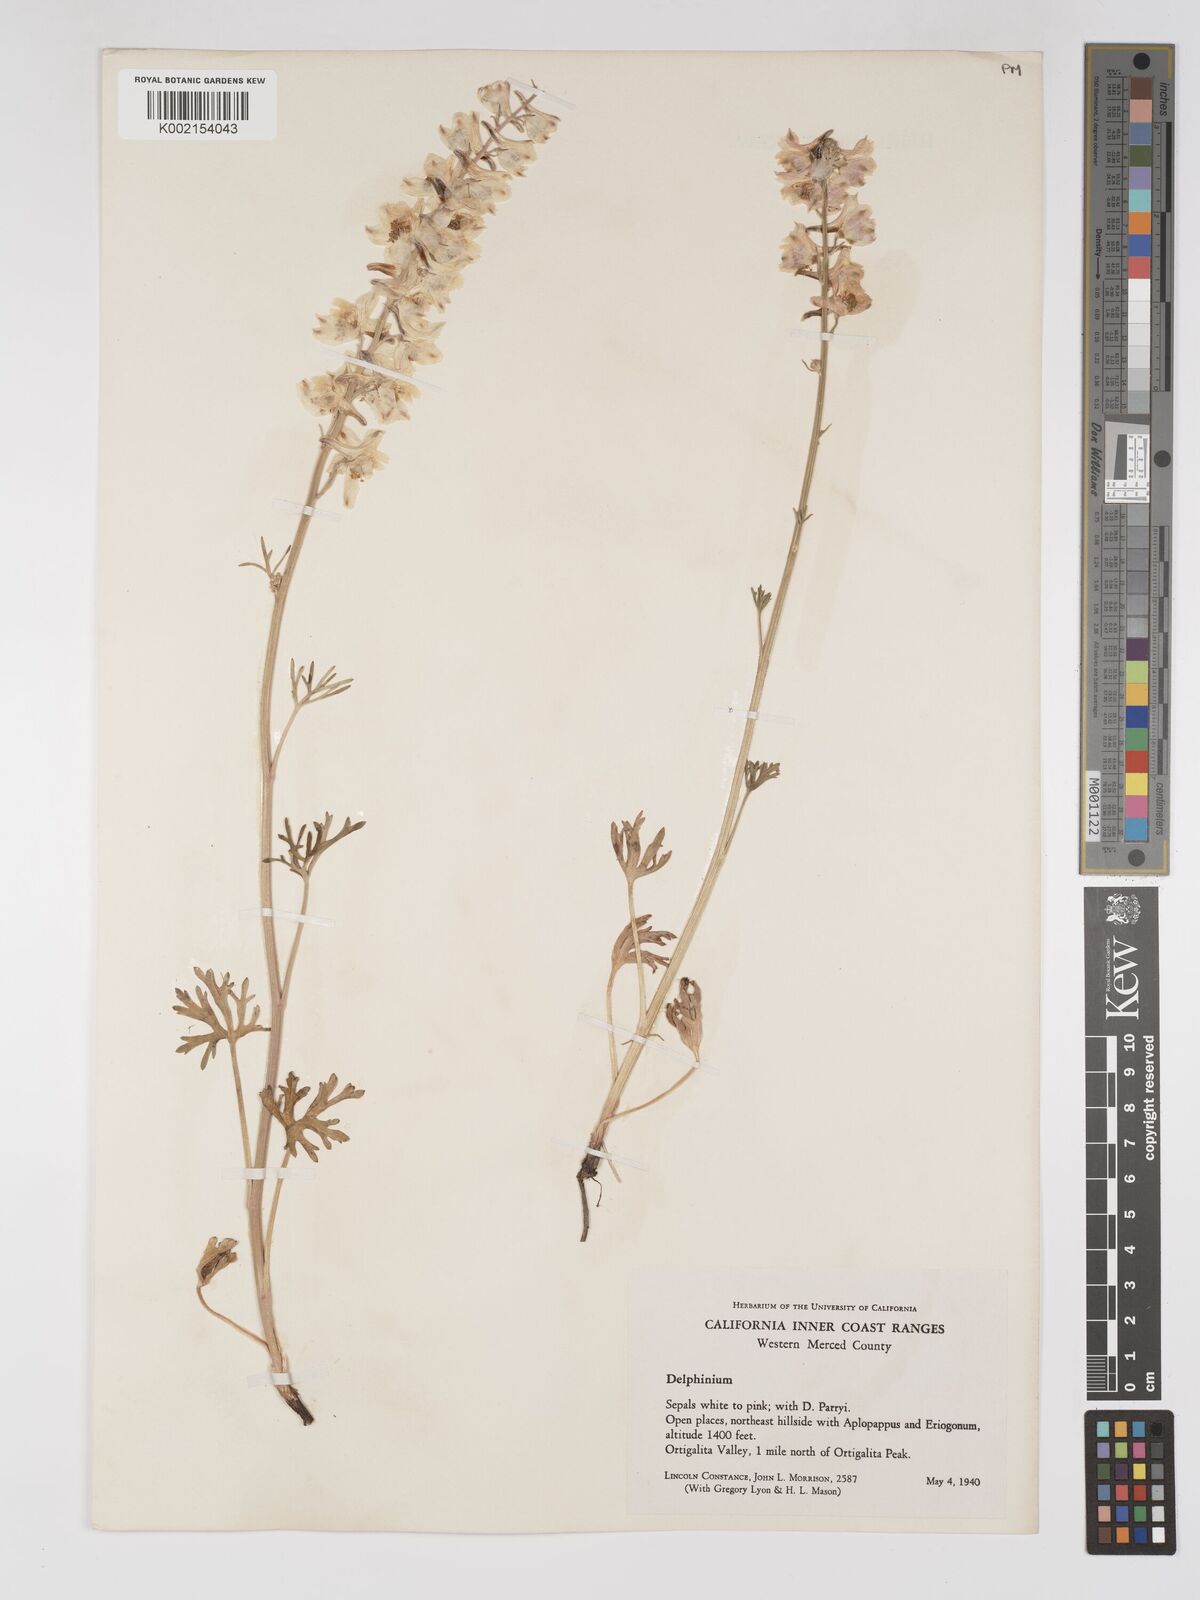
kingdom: Plantae
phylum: Tracheophyta
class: Magnoliopsida
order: Ranunculales
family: Ranunculaceae
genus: Delphinium
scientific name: Delphinium
